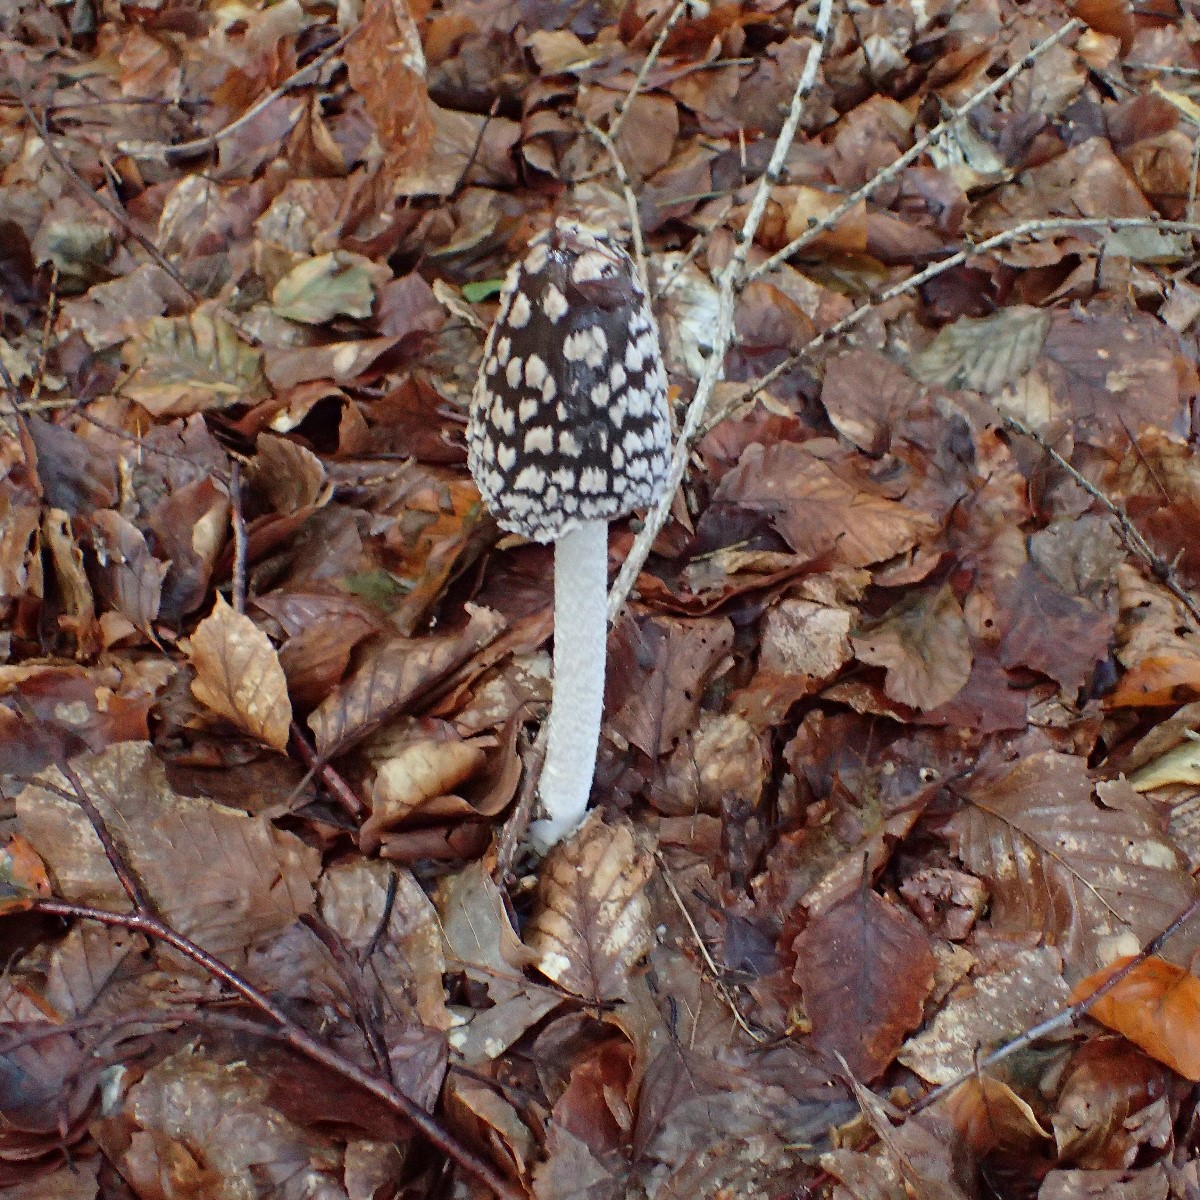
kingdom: Fungi
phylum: Basidiomycota
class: Agaricomycetes
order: Agaricales
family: Psathyrellaceae
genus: Coprinopsis
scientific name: Coprinopsis picacea
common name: skade-blækhat
